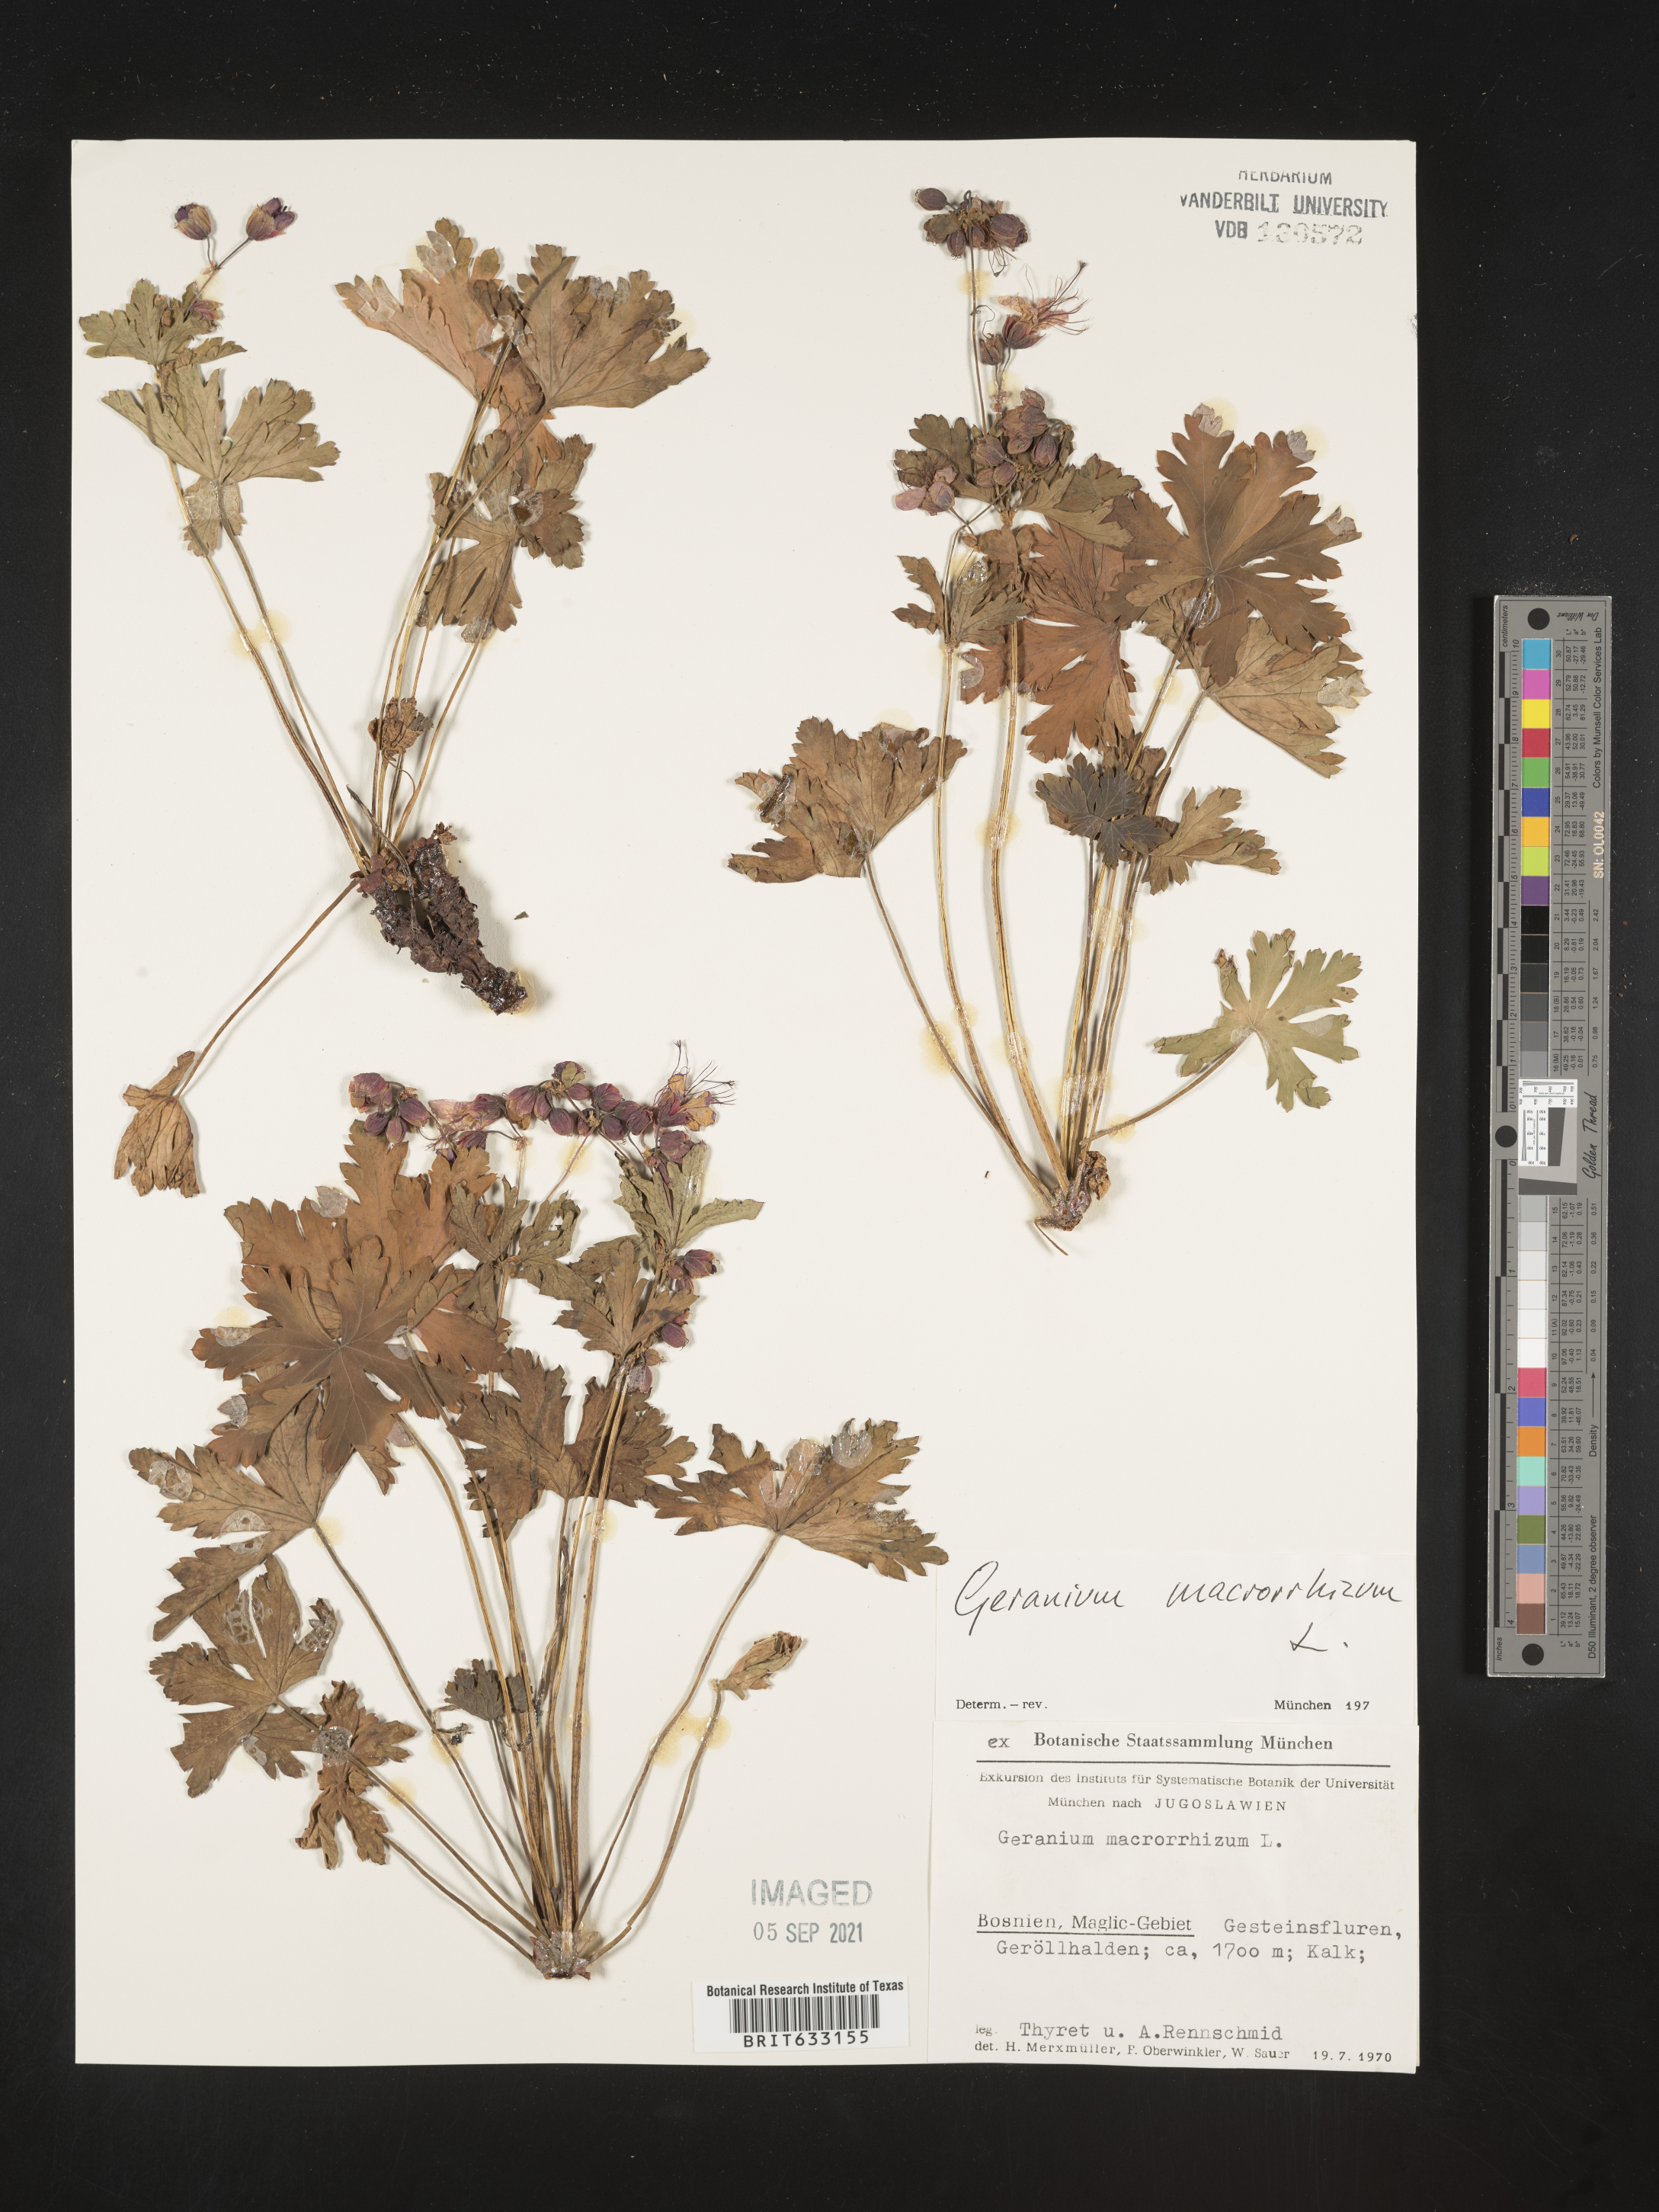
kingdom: Plantae
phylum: Tracheophyta
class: Magnoliopsida
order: Geraniales
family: Geraniaceae
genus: Geranium
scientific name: Geranium
